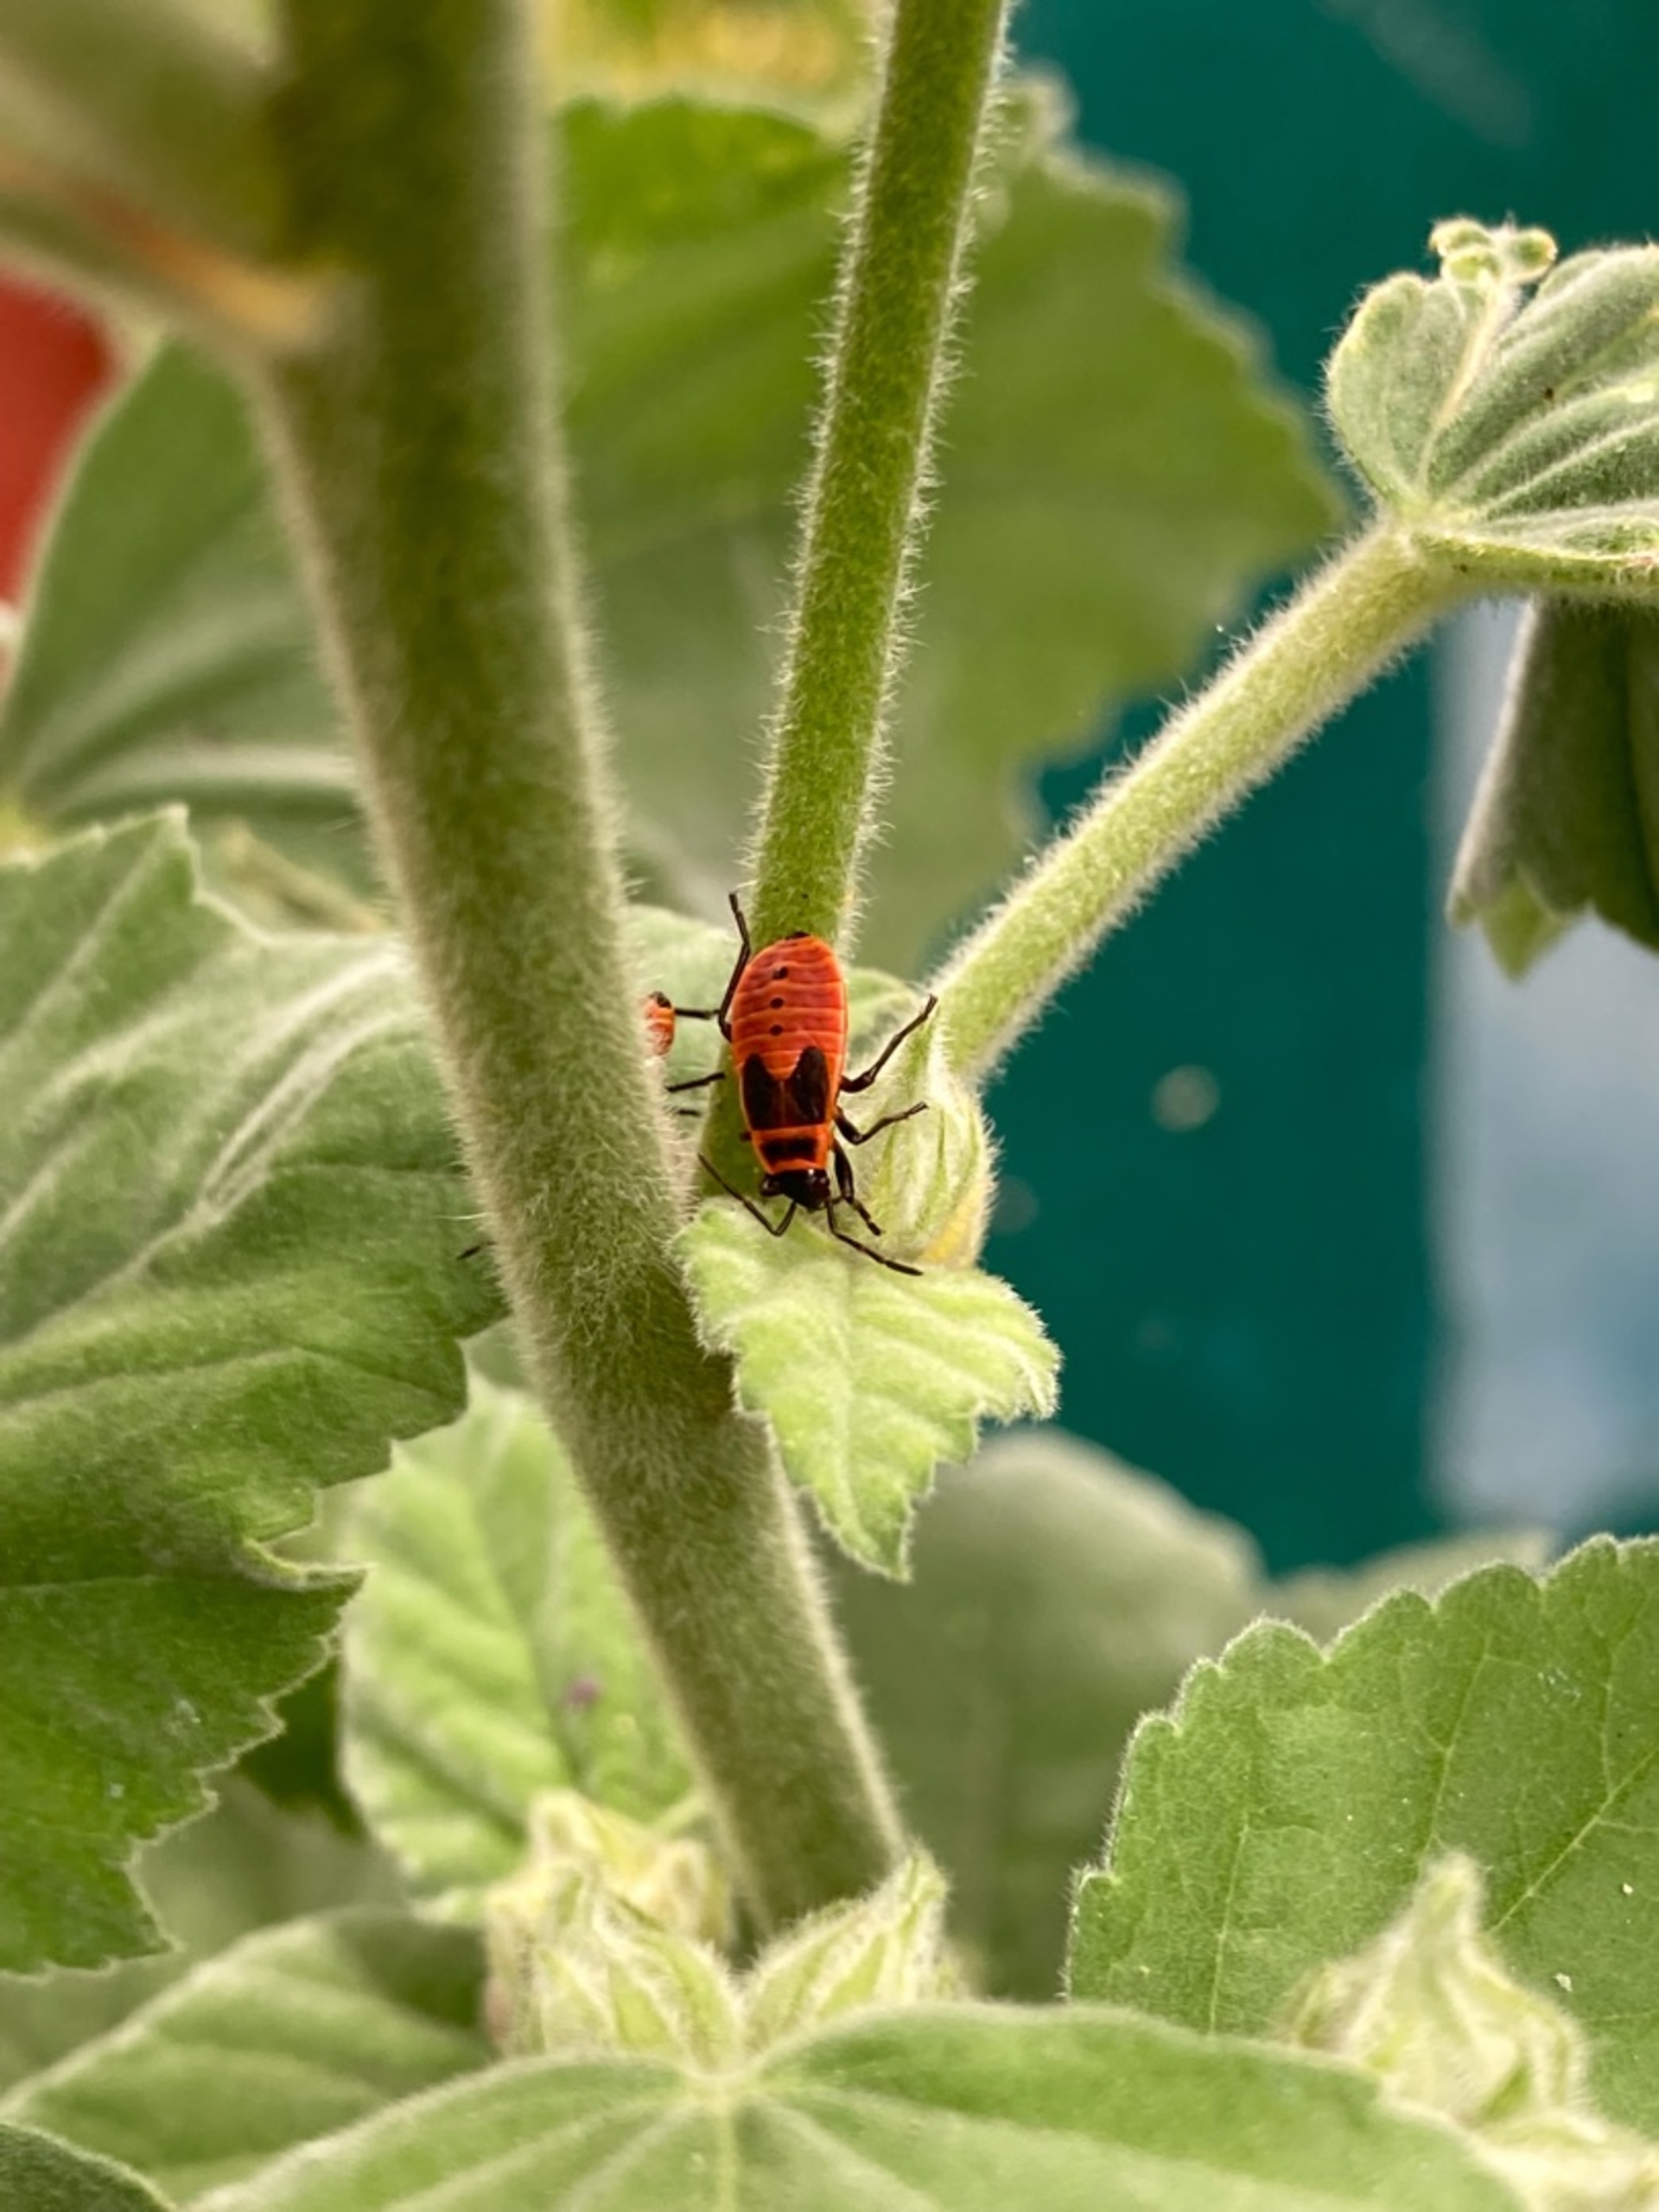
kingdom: Animalia
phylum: Arthropoda
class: Insecta
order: Hemiptera
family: Pyrrhocoridae
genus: Pyrrhocoris
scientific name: Pyrrhocoris apterus
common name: Ildtæge
